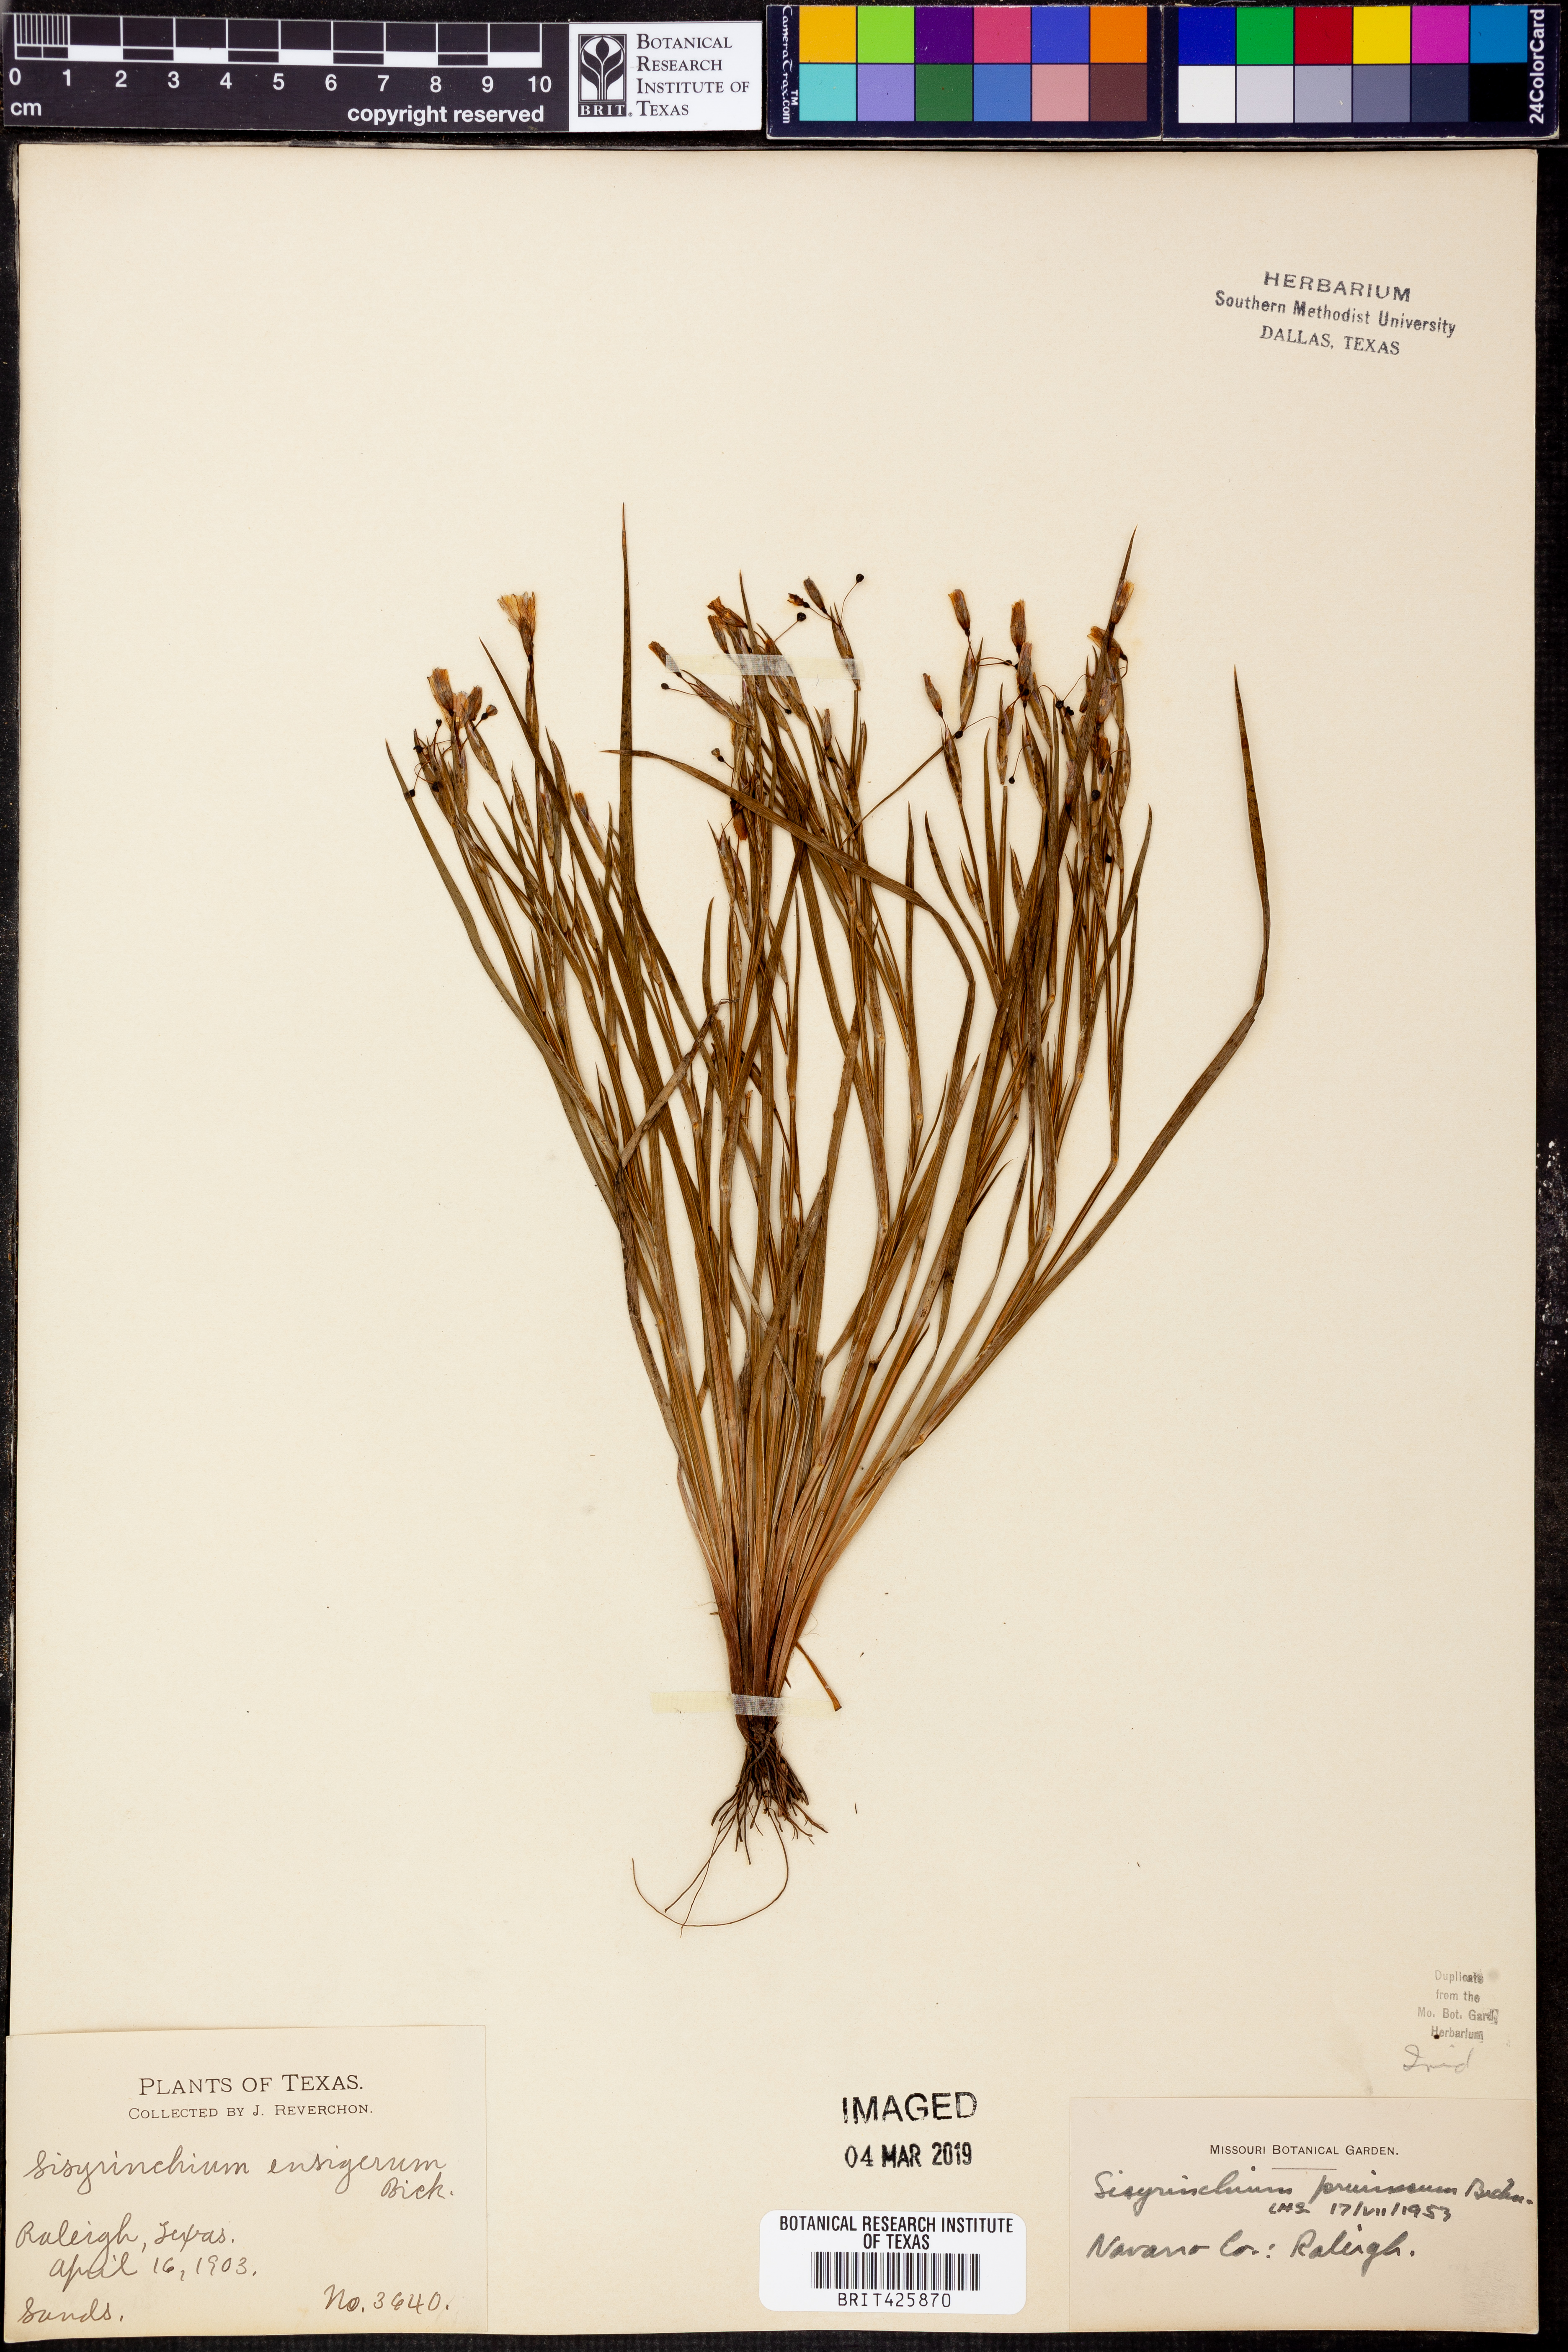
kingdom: Plantae
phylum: Tracheophyta
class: Liliopsida
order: Asparagales
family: Iridaceae
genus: Sisyrinchium
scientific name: Sisyrinchium pruinosum
